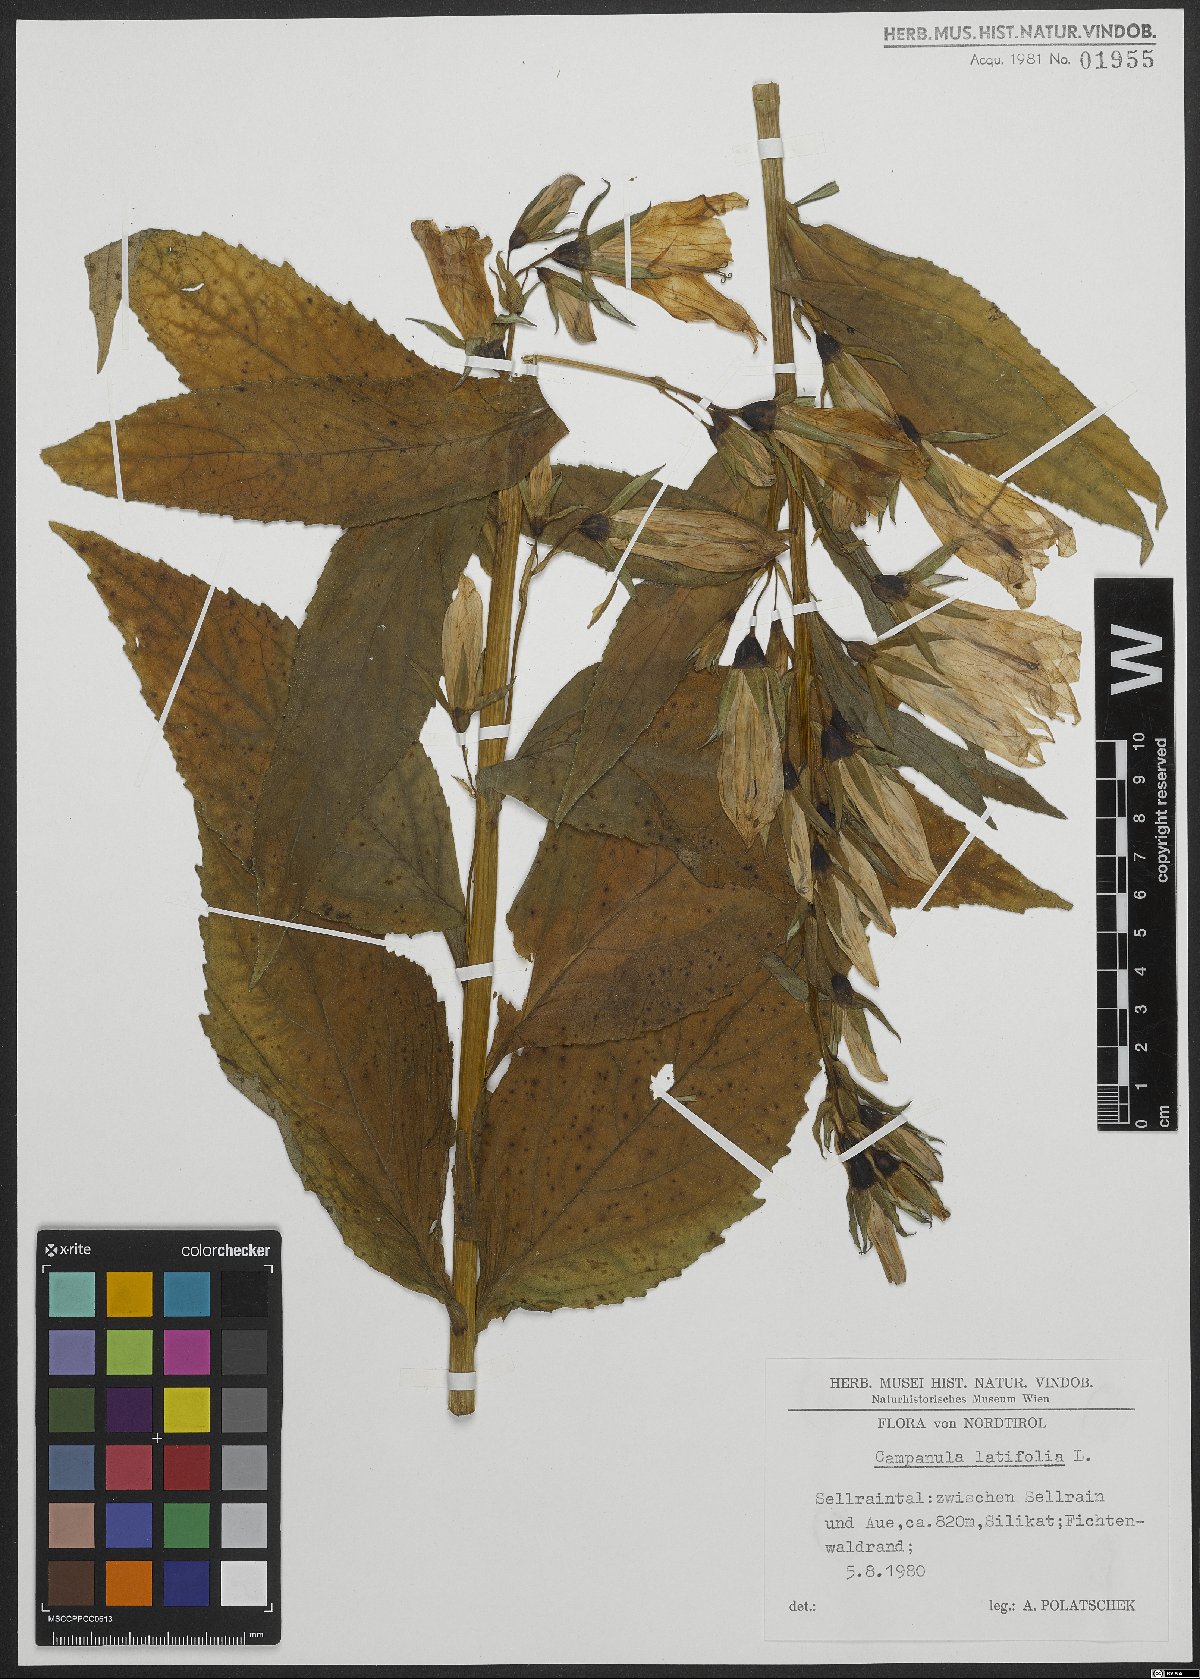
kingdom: Plantae
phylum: Tracheophyta
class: Magnoliopsida
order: Asterales
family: Campanulaceae
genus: Campanula
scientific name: Campanula latifolia
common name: Giant bellflower
